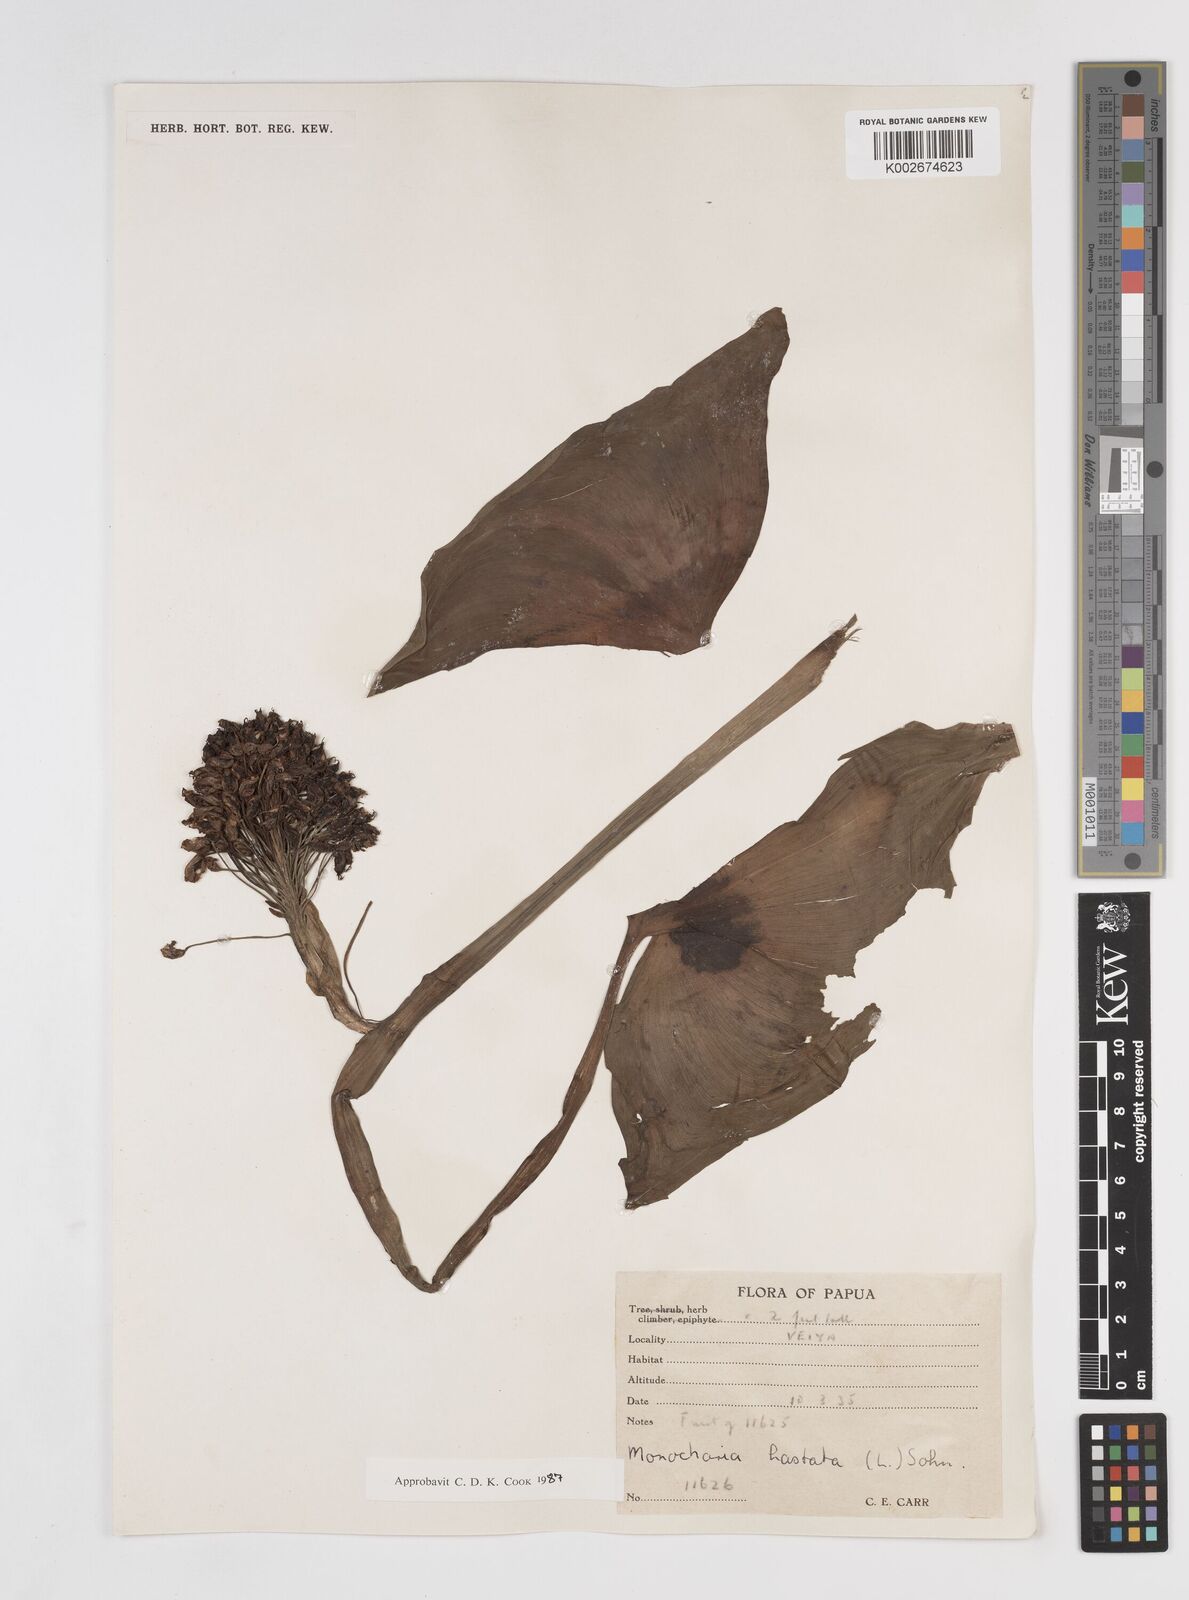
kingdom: Plantae
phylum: Tracheophyta
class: Liliopsida
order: Commelinales
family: Pontederiaceae
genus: Pontederia
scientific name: Pontederia hastata
